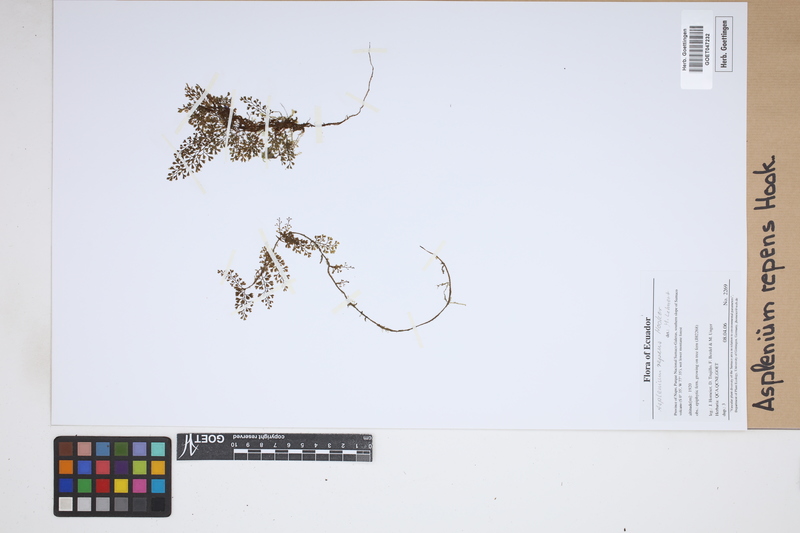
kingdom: Plantae
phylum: Tracheophyta
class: Polypodiopsida
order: Polypodiales
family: Aspleniaceae
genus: Asplenium
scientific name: Asplenium repens
